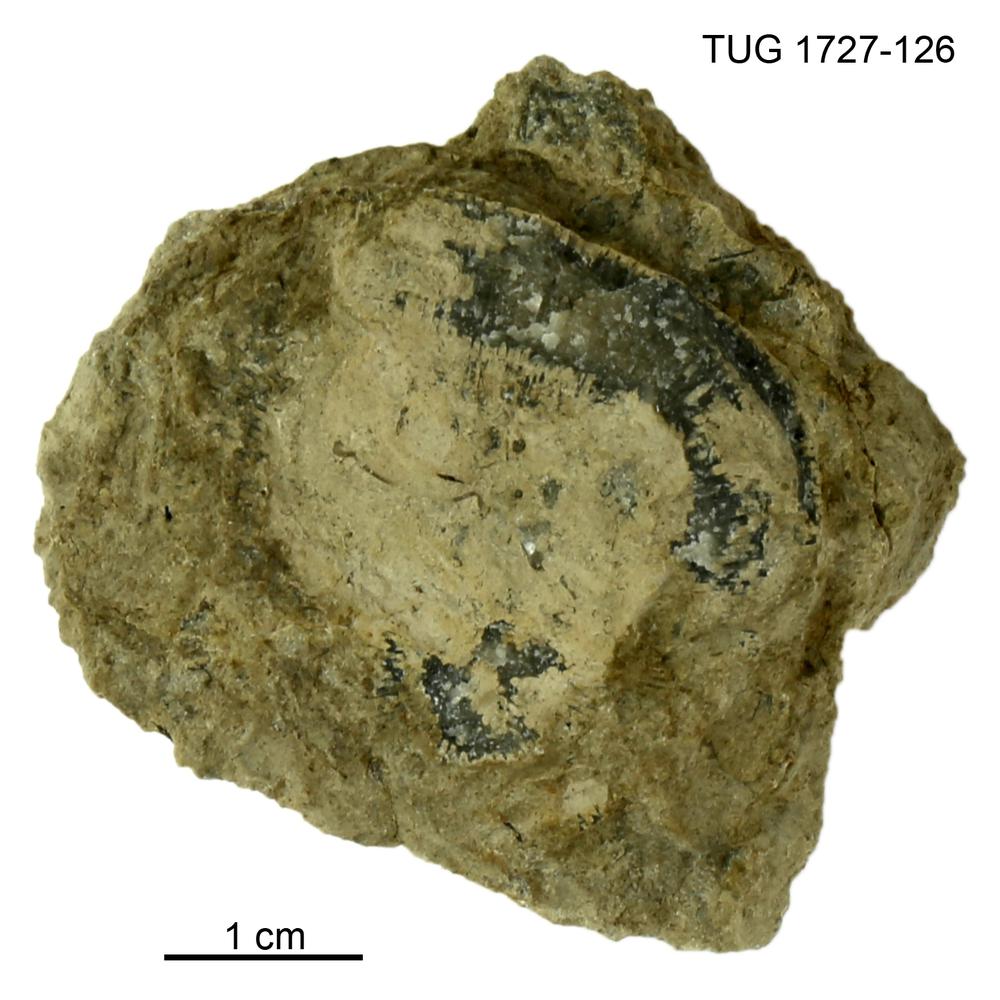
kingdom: Animalia
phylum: Bryozoa
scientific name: Bryozoa
